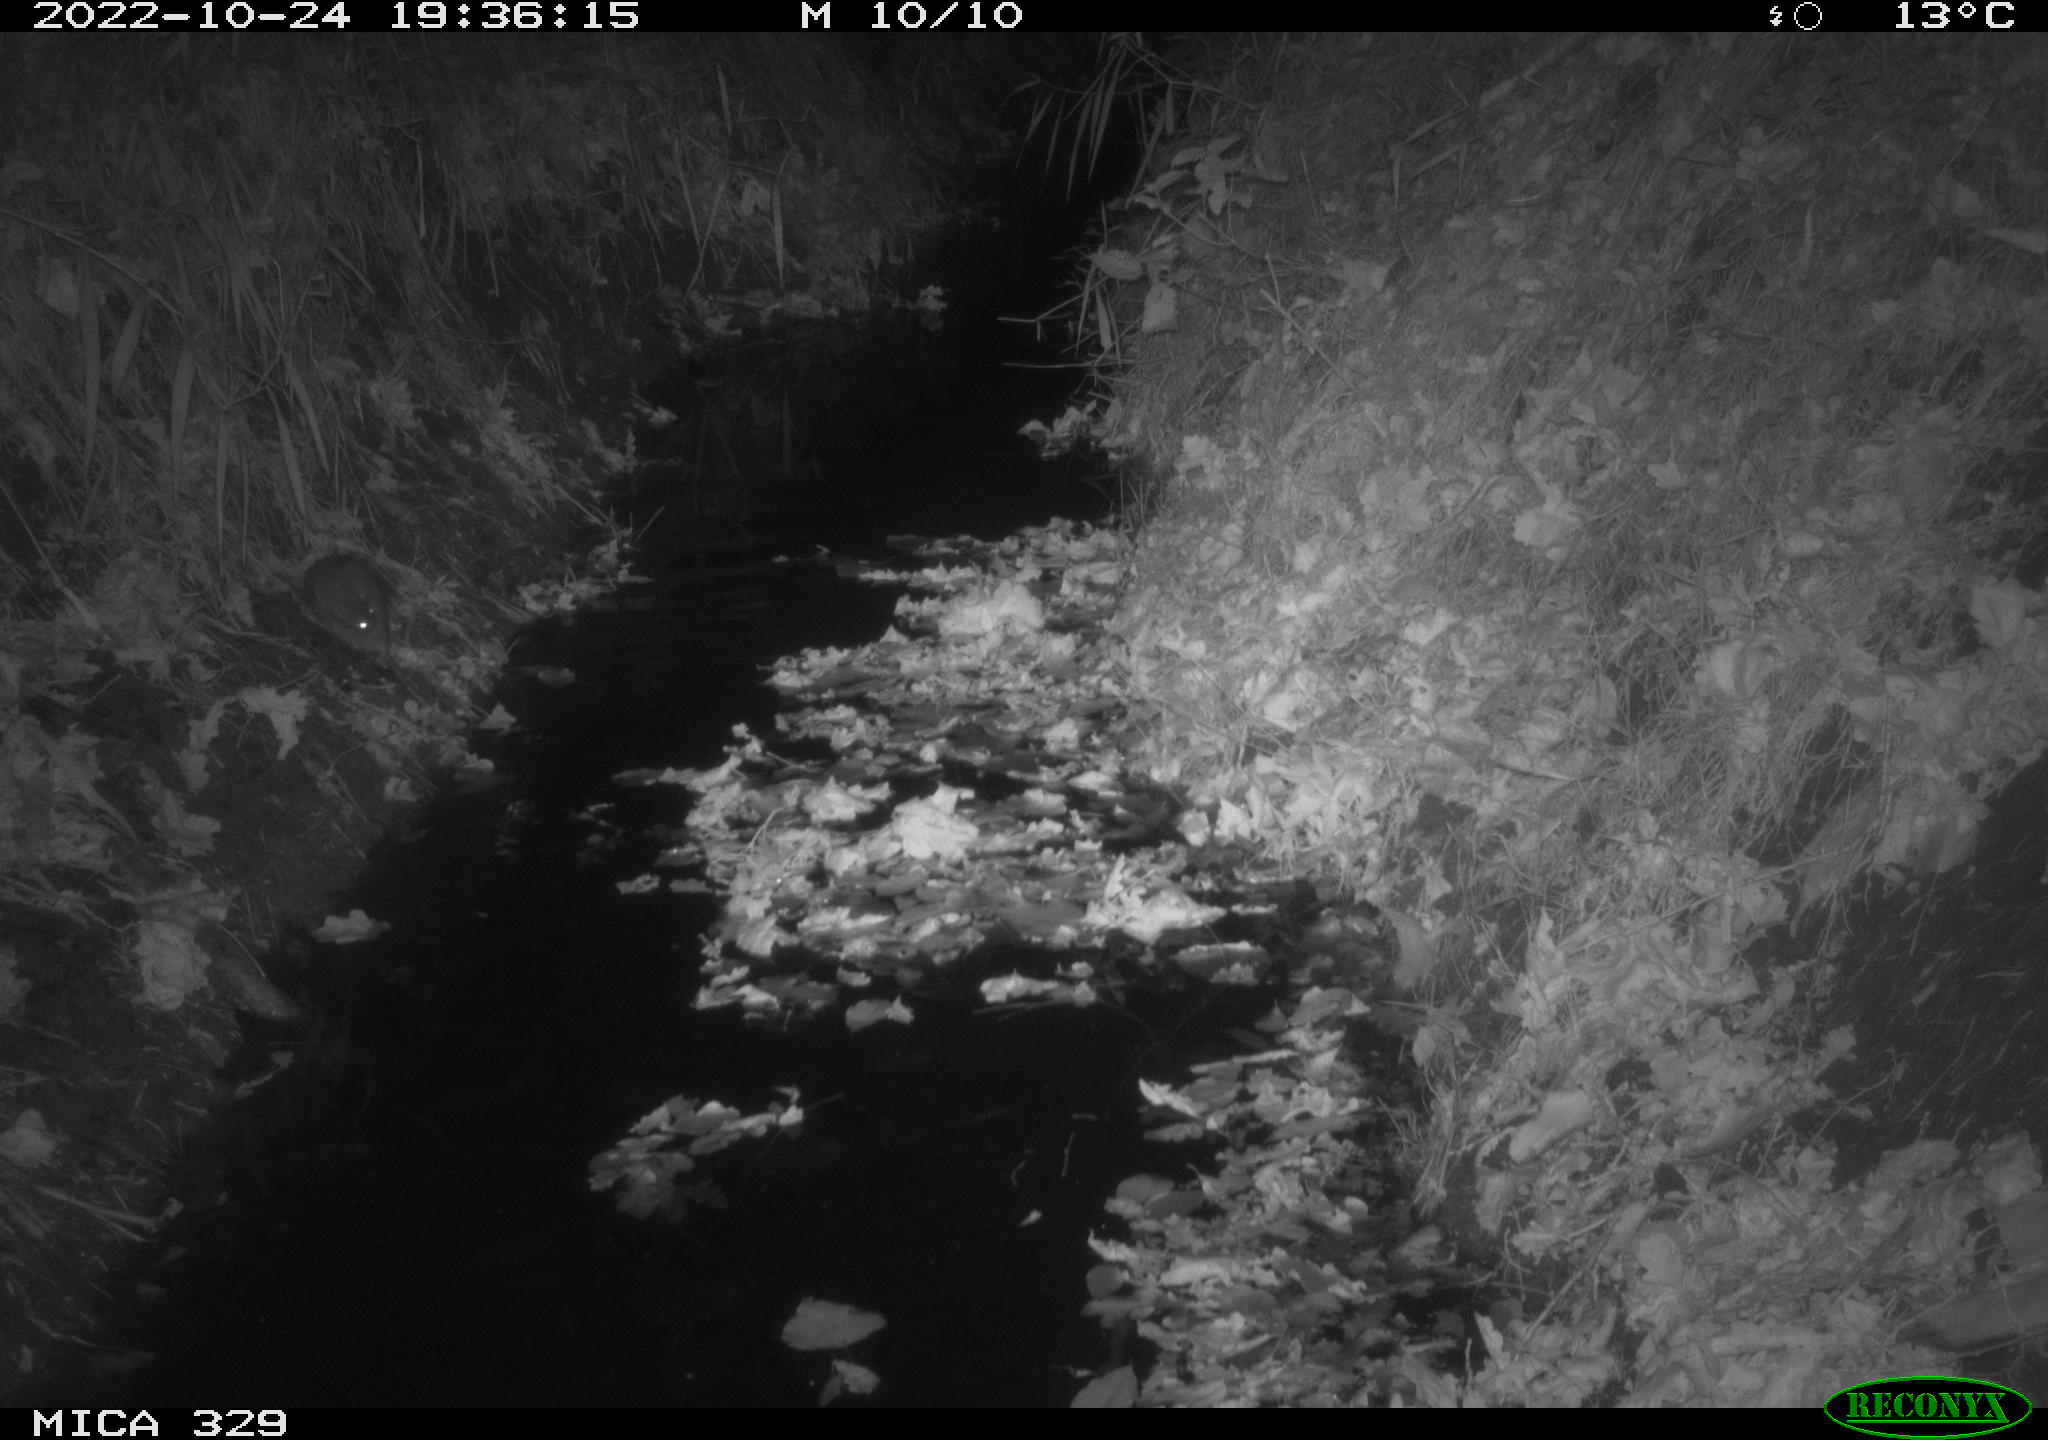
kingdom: Animalia
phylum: Chordata
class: Mammalia
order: Rodentia
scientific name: Rodentia
